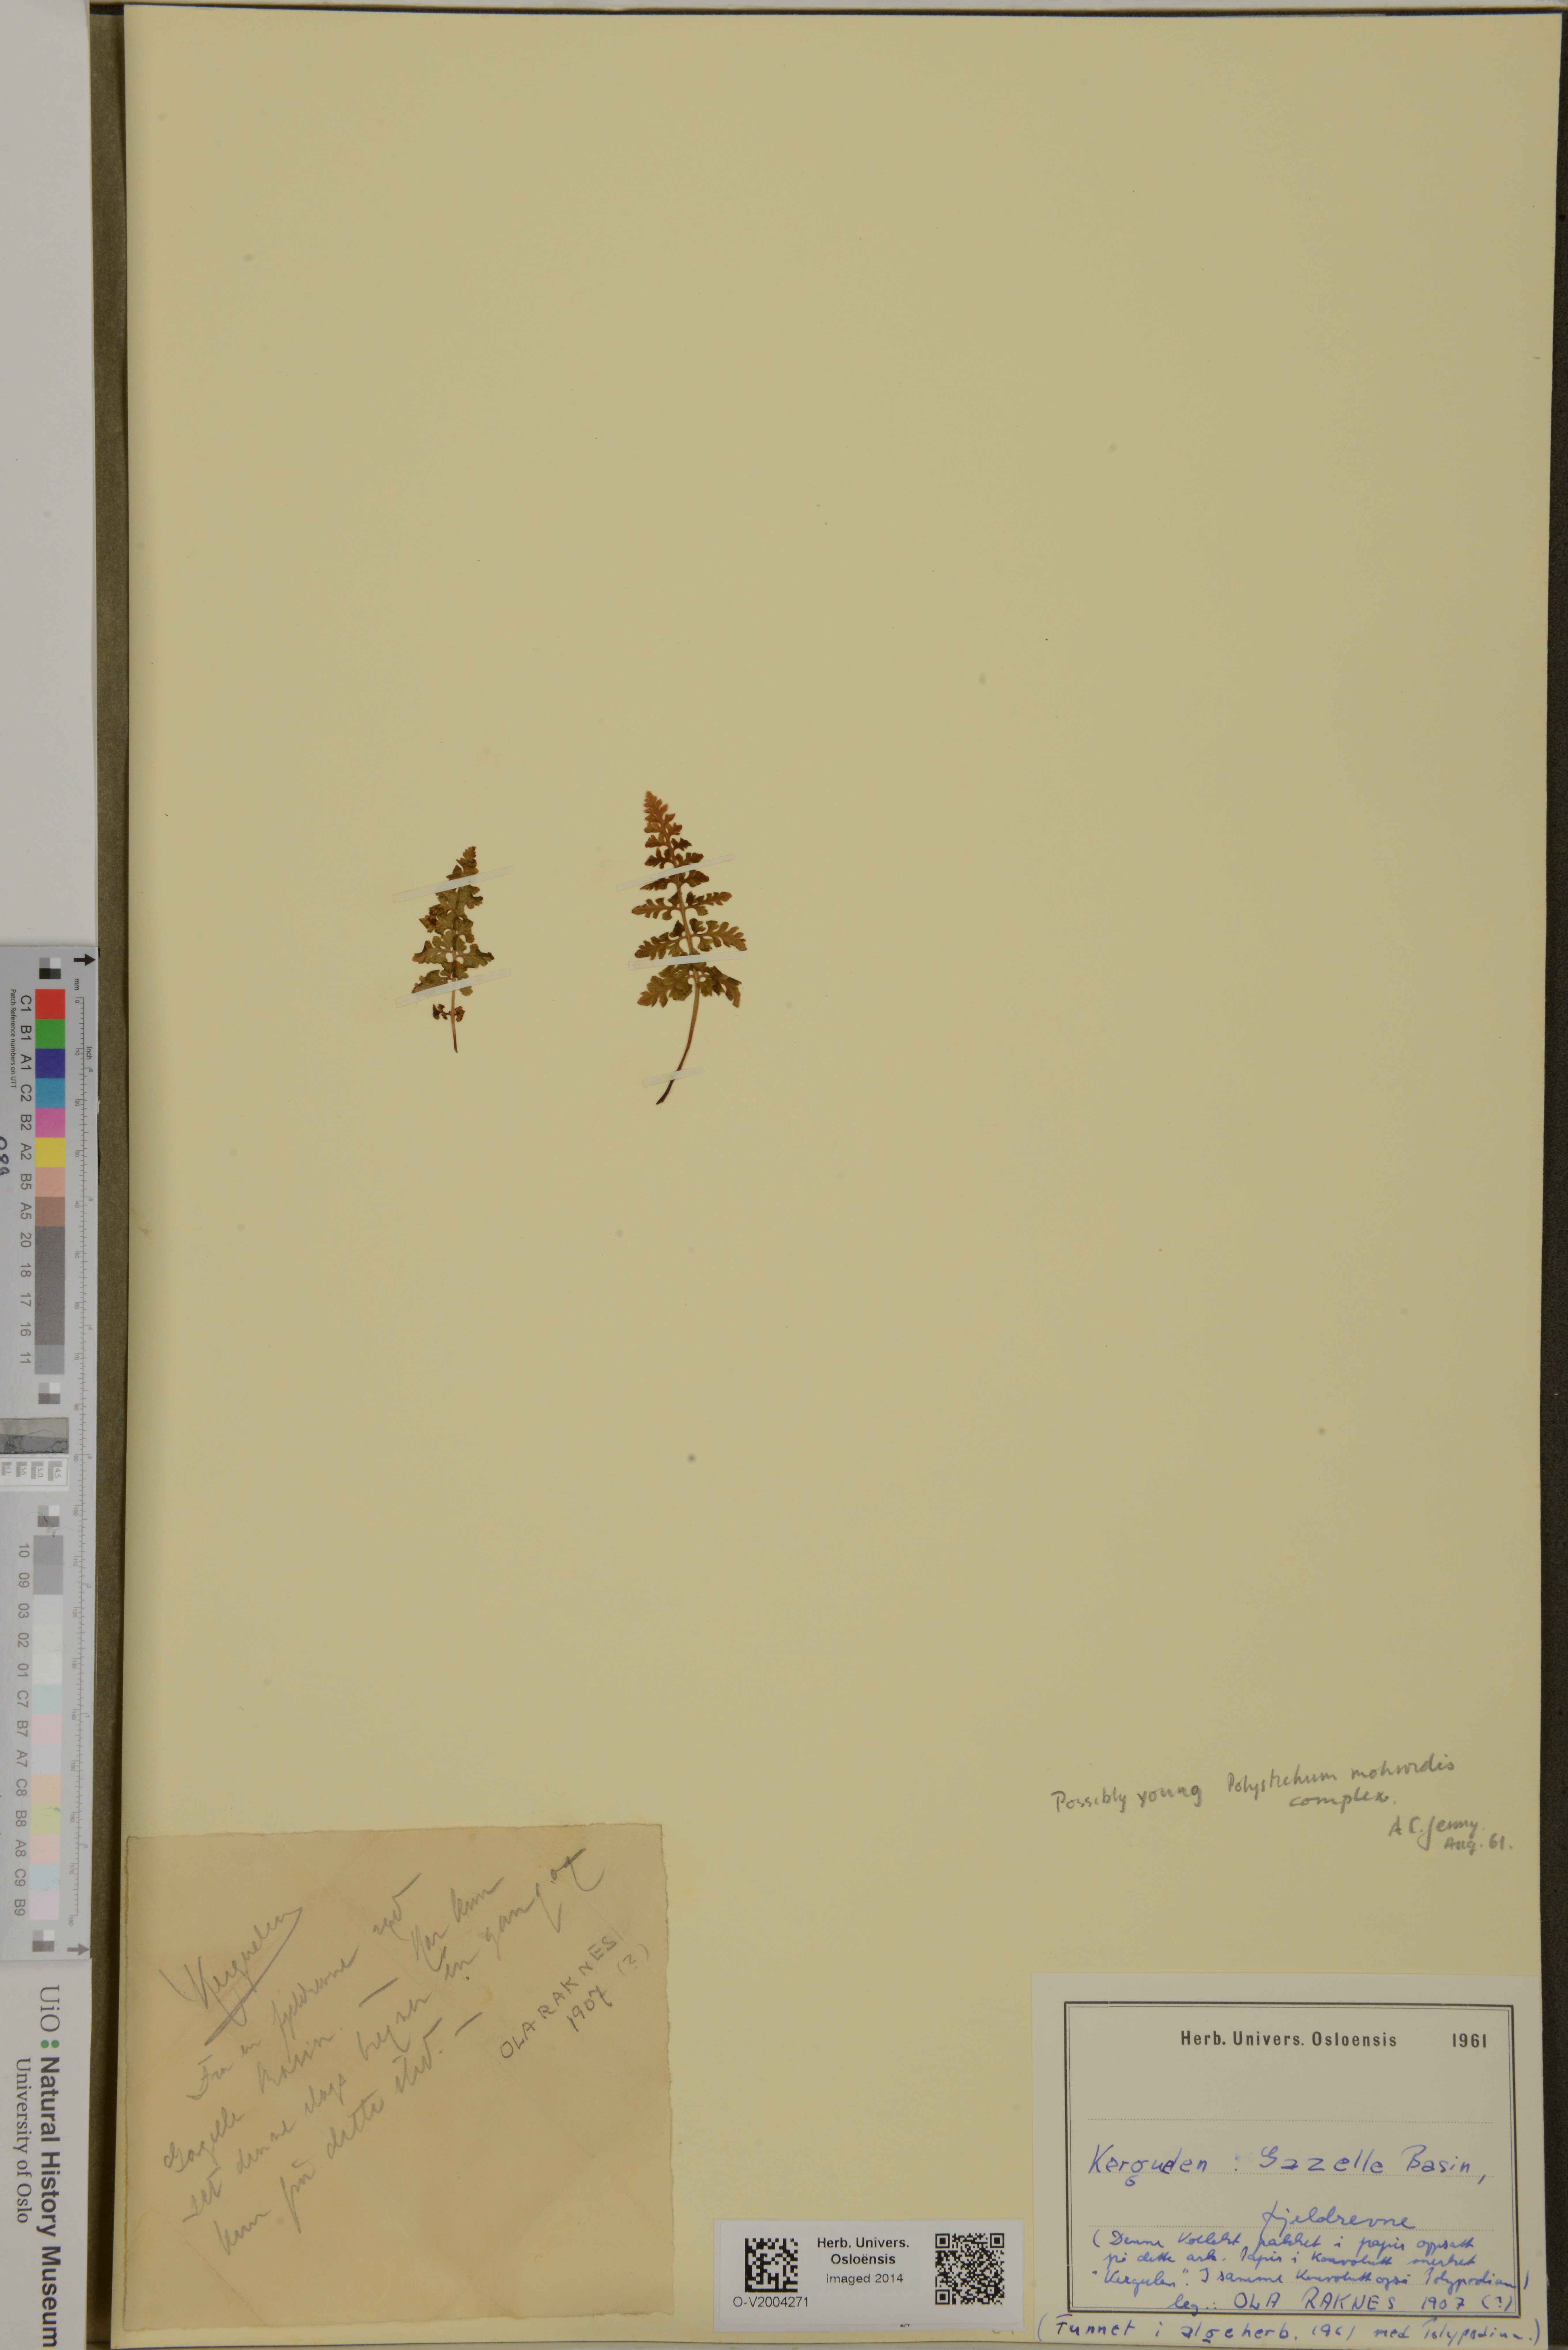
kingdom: Plantae
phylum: Tracheophyta
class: Polypodiopsida
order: Polypodiales
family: Dryopteridaceae
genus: Polystichum
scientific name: Polystichum mohrioides
